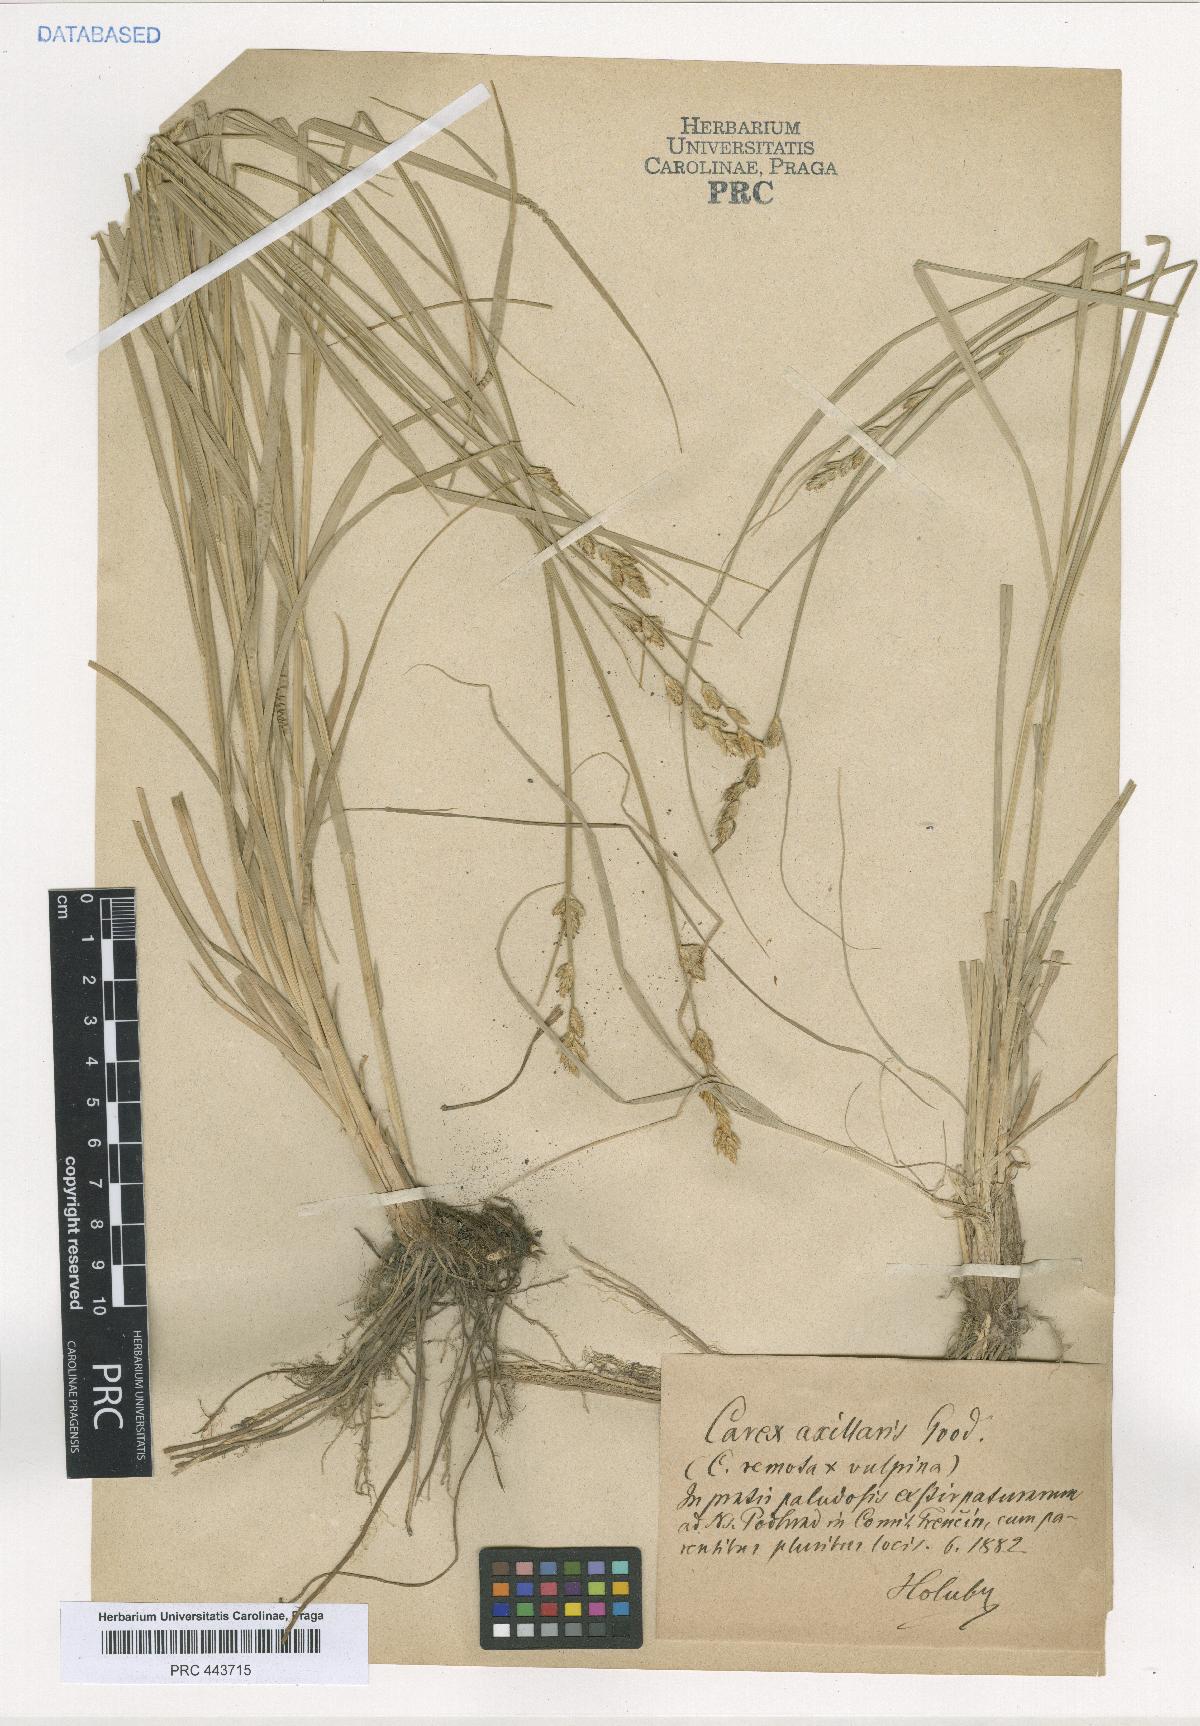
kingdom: Plantae
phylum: Tracheophyta
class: Liliopsida
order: Poales
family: Cyperaceae
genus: Carex
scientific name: Carex pseudoaxillaris
